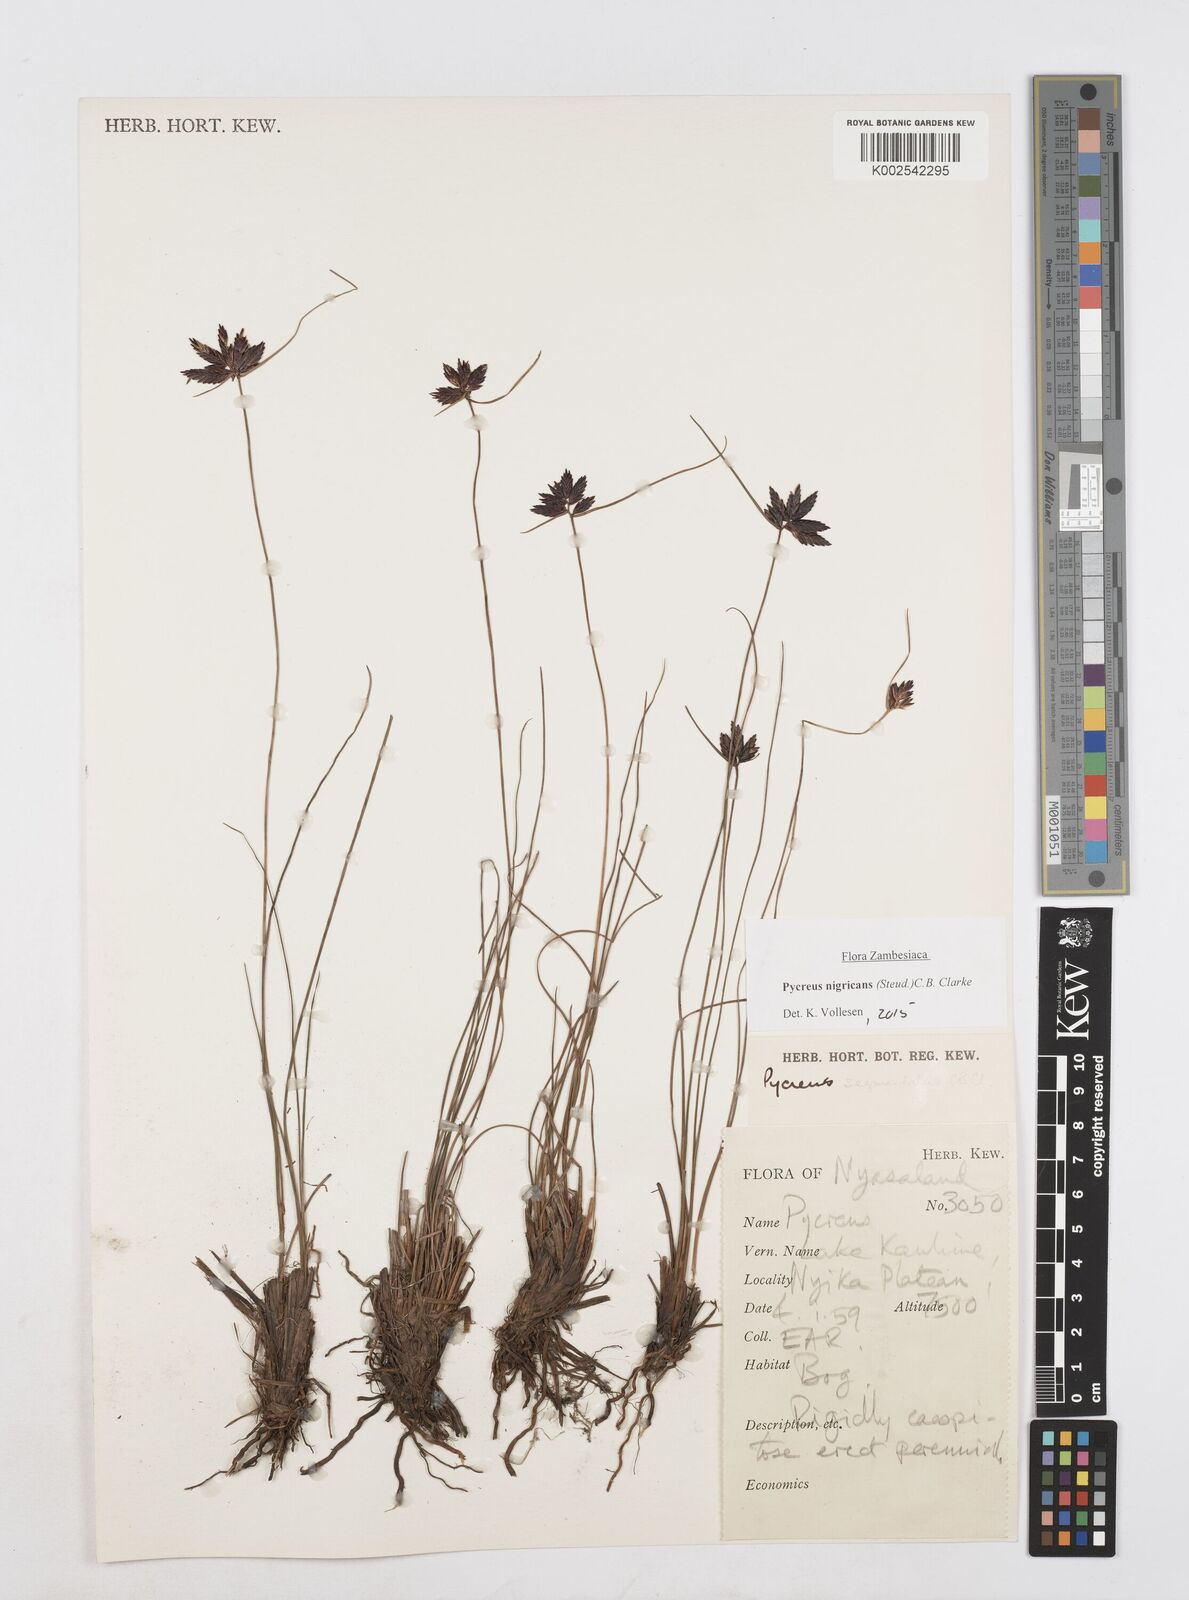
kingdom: Plantae
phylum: Tracheophyta
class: Liliopsida
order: Poales
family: Cyperaceae
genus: Cyperus
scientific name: Cyperus nigricans
